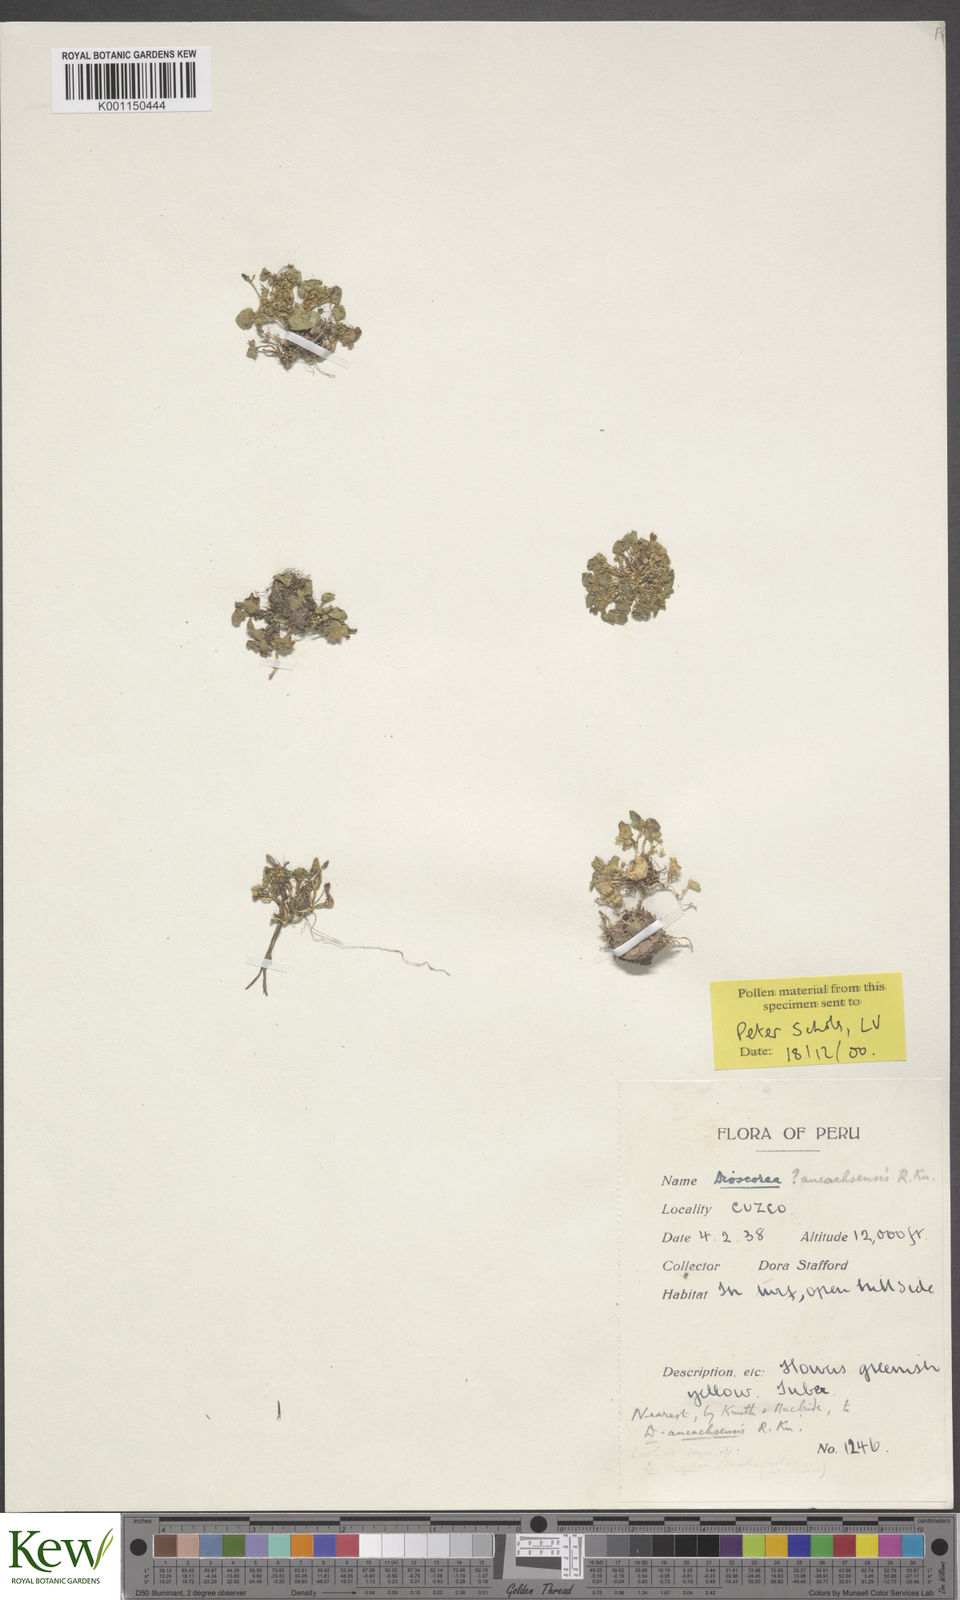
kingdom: Plantae
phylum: Tracheophyta
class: Liliopsida
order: Dioscoreales
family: Dioscoreaceae
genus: Dioscorea
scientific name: Dioscorea ancachsensis
